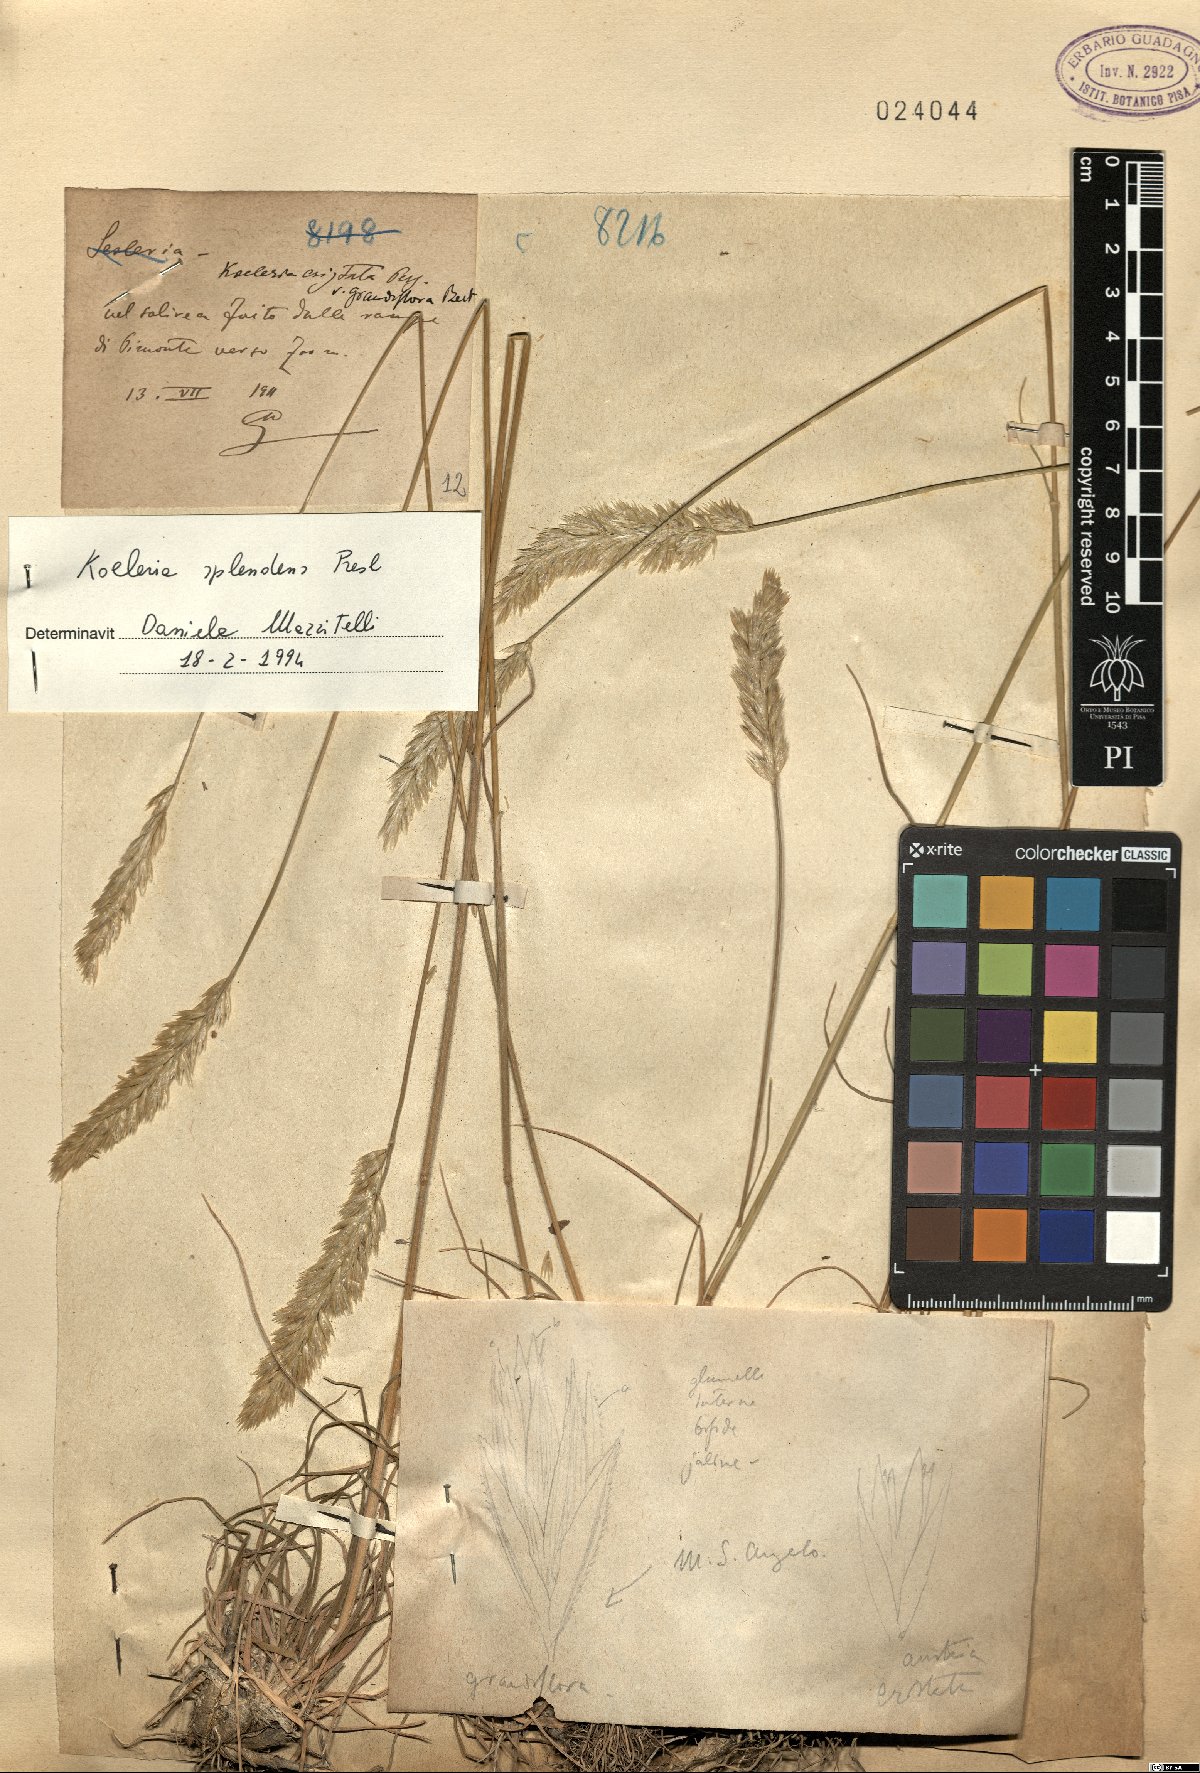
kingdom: Plantae
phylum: Tracheophyta
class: Liliopsida
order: Poales
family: Poaceae
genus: Koeleria
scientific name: Koeleria splendens
